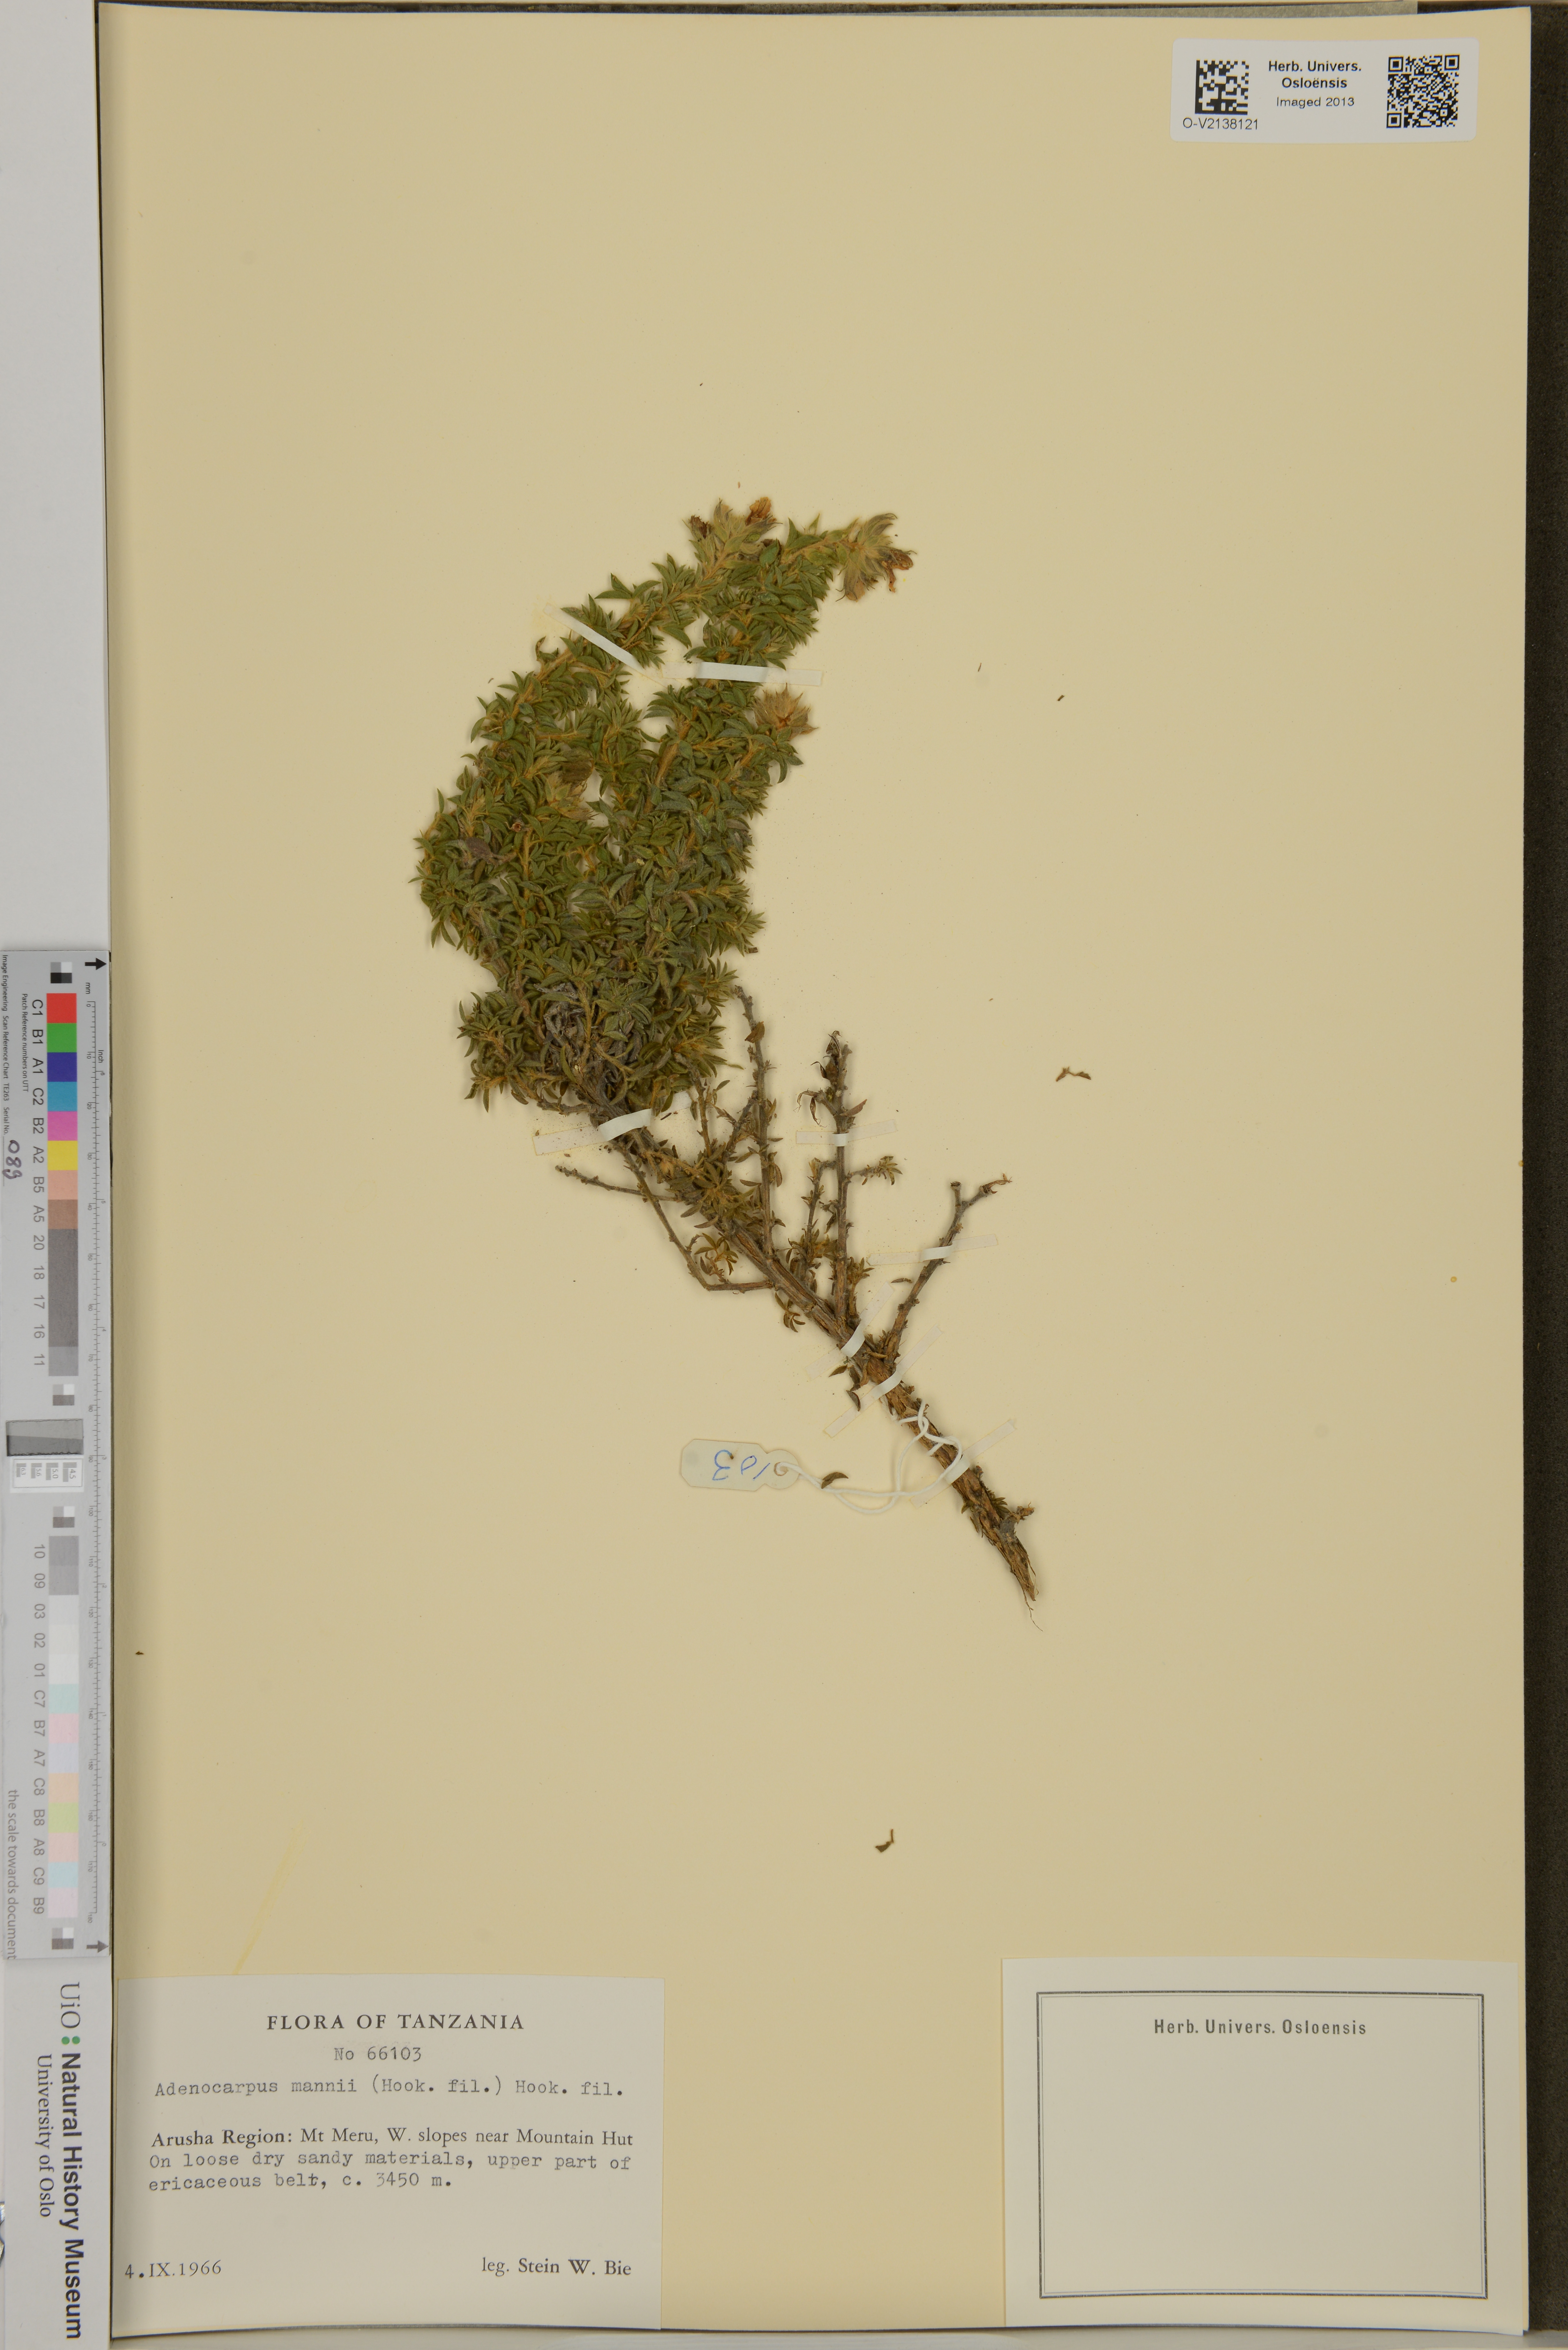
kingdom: Plantae
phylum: Tracheophyta
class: Magnoliopsida
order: Fabales
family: Fabaceae
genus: Adenocarpus
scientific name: Adenocarpus mannii
